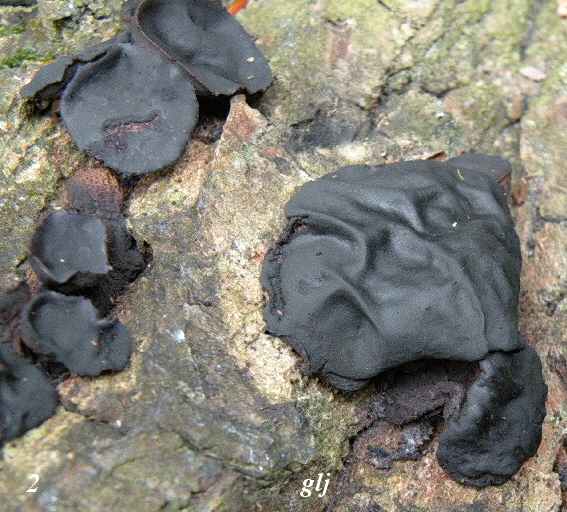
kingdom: Fungi
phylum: Basidiomycota
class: Agaricomycetes
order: Auriculariales
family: Auriculariaceae
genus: Exidia
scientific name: Exidia glandulosa
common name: ege-bævretop
